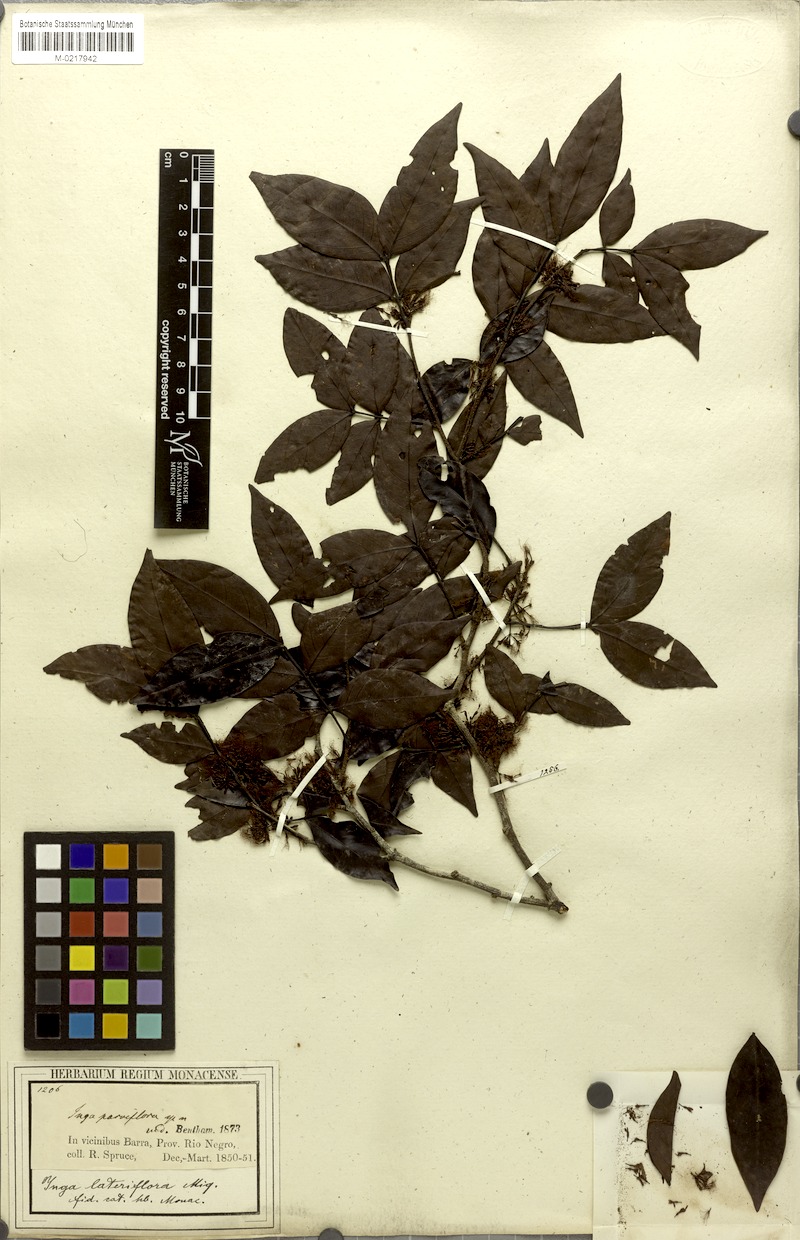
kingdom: Plantae
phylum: Tracheophyta
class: Magnoliopsida
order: Fabales
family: Fabaceae
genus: Inga
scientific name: Inga lateriflora
